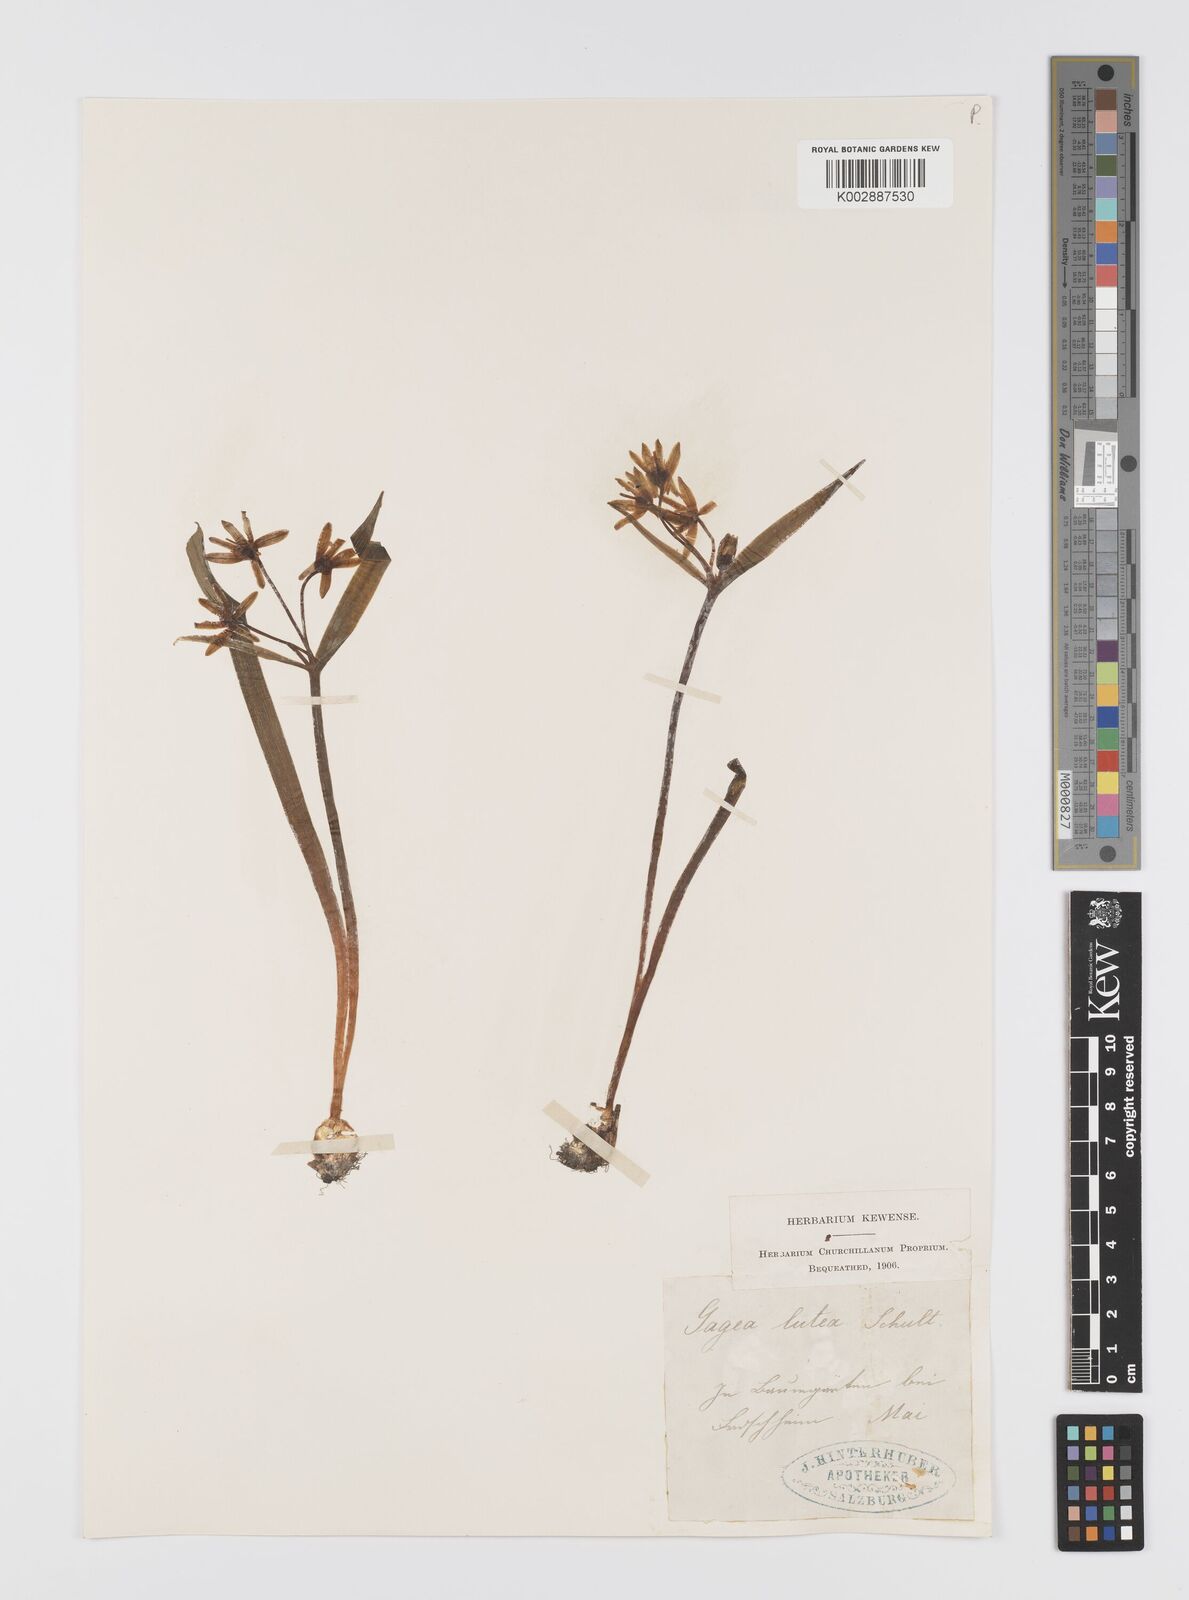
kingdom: Plantae
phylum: Tracheophyta
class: Liliopsida
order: Liliales
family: Liliaceae
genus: Gagea
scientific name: Gagea lutea
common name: Yellow star-of-bethlehem
